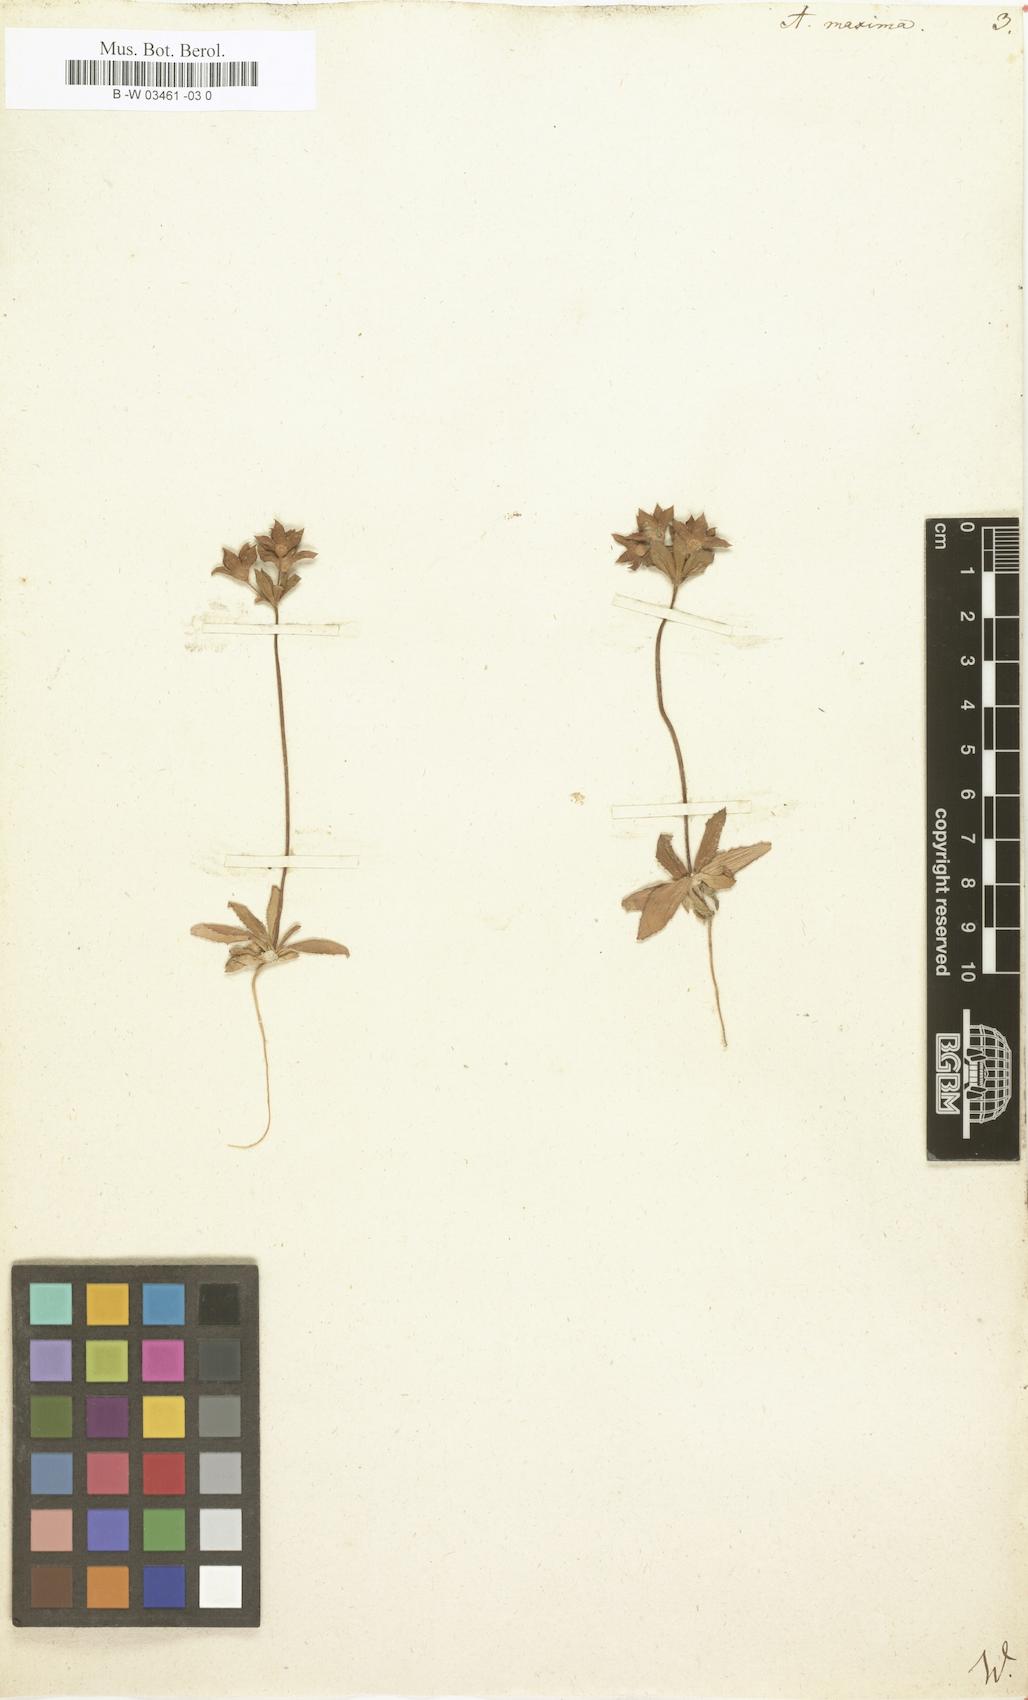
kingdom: Plantae
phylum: Tracheophyta
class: Magnoliopsida
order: Ericales
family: Primulaceae
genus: Androsace
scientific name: Androsace maxima
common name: Annual androsace
